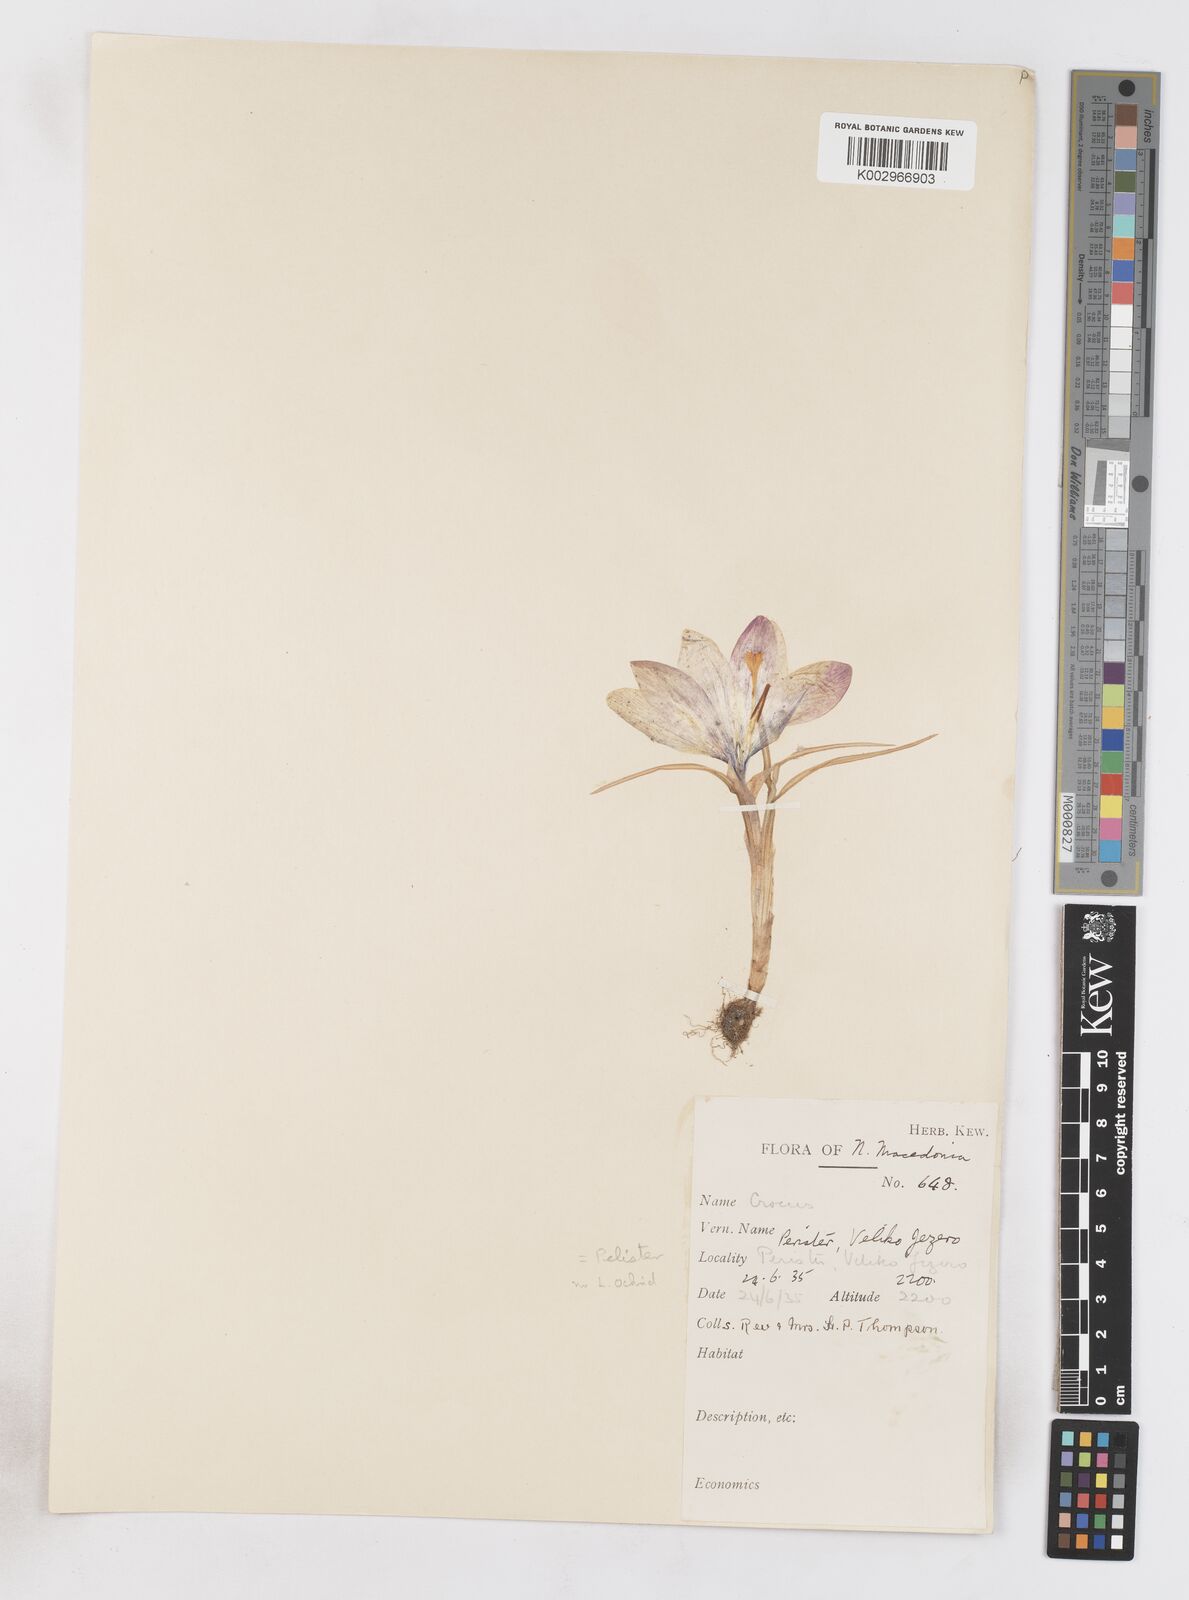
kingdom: Plantae
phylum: Tracheophyta
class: Liliopsida
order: Asparagales
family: Iridaceae
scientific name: Iridaceae
